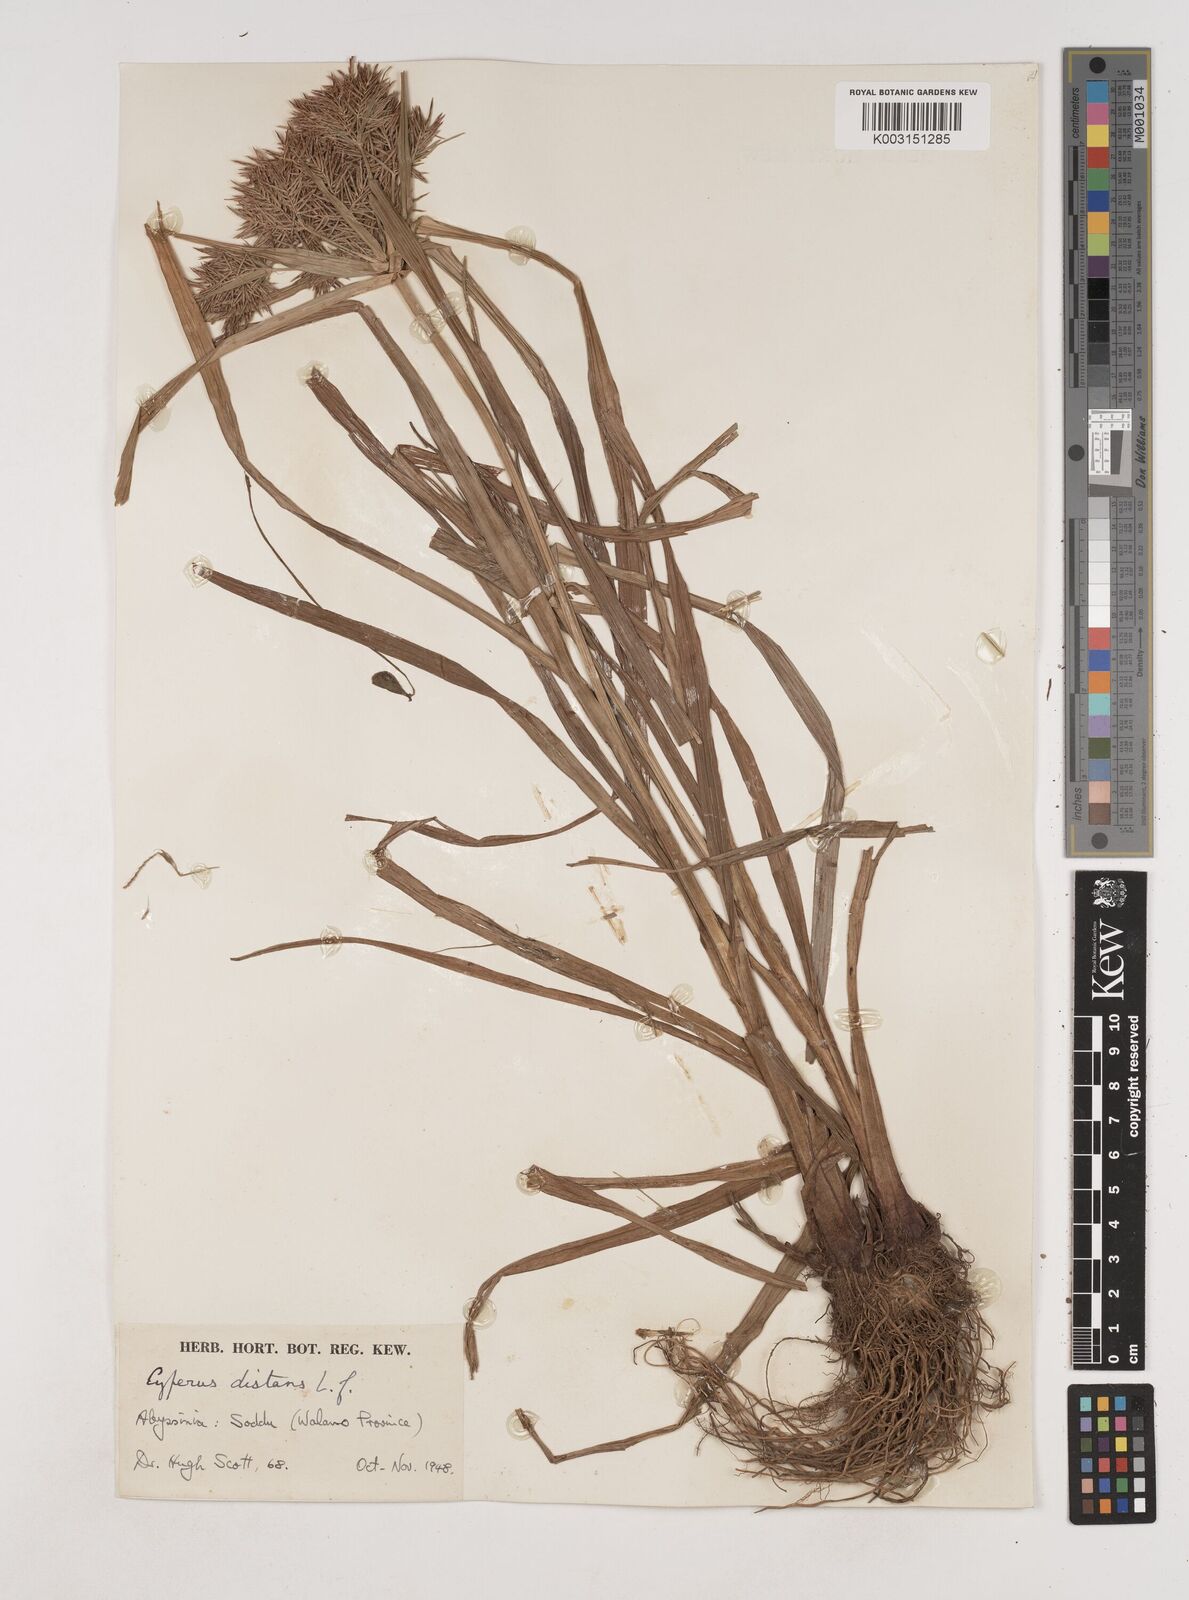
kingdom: Plantae
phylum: Tracheophyta
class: Liliopsida
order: Poales
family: Cyperaceae
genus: Cyperus
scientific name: Cyperus distans
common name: Slender cyperus
